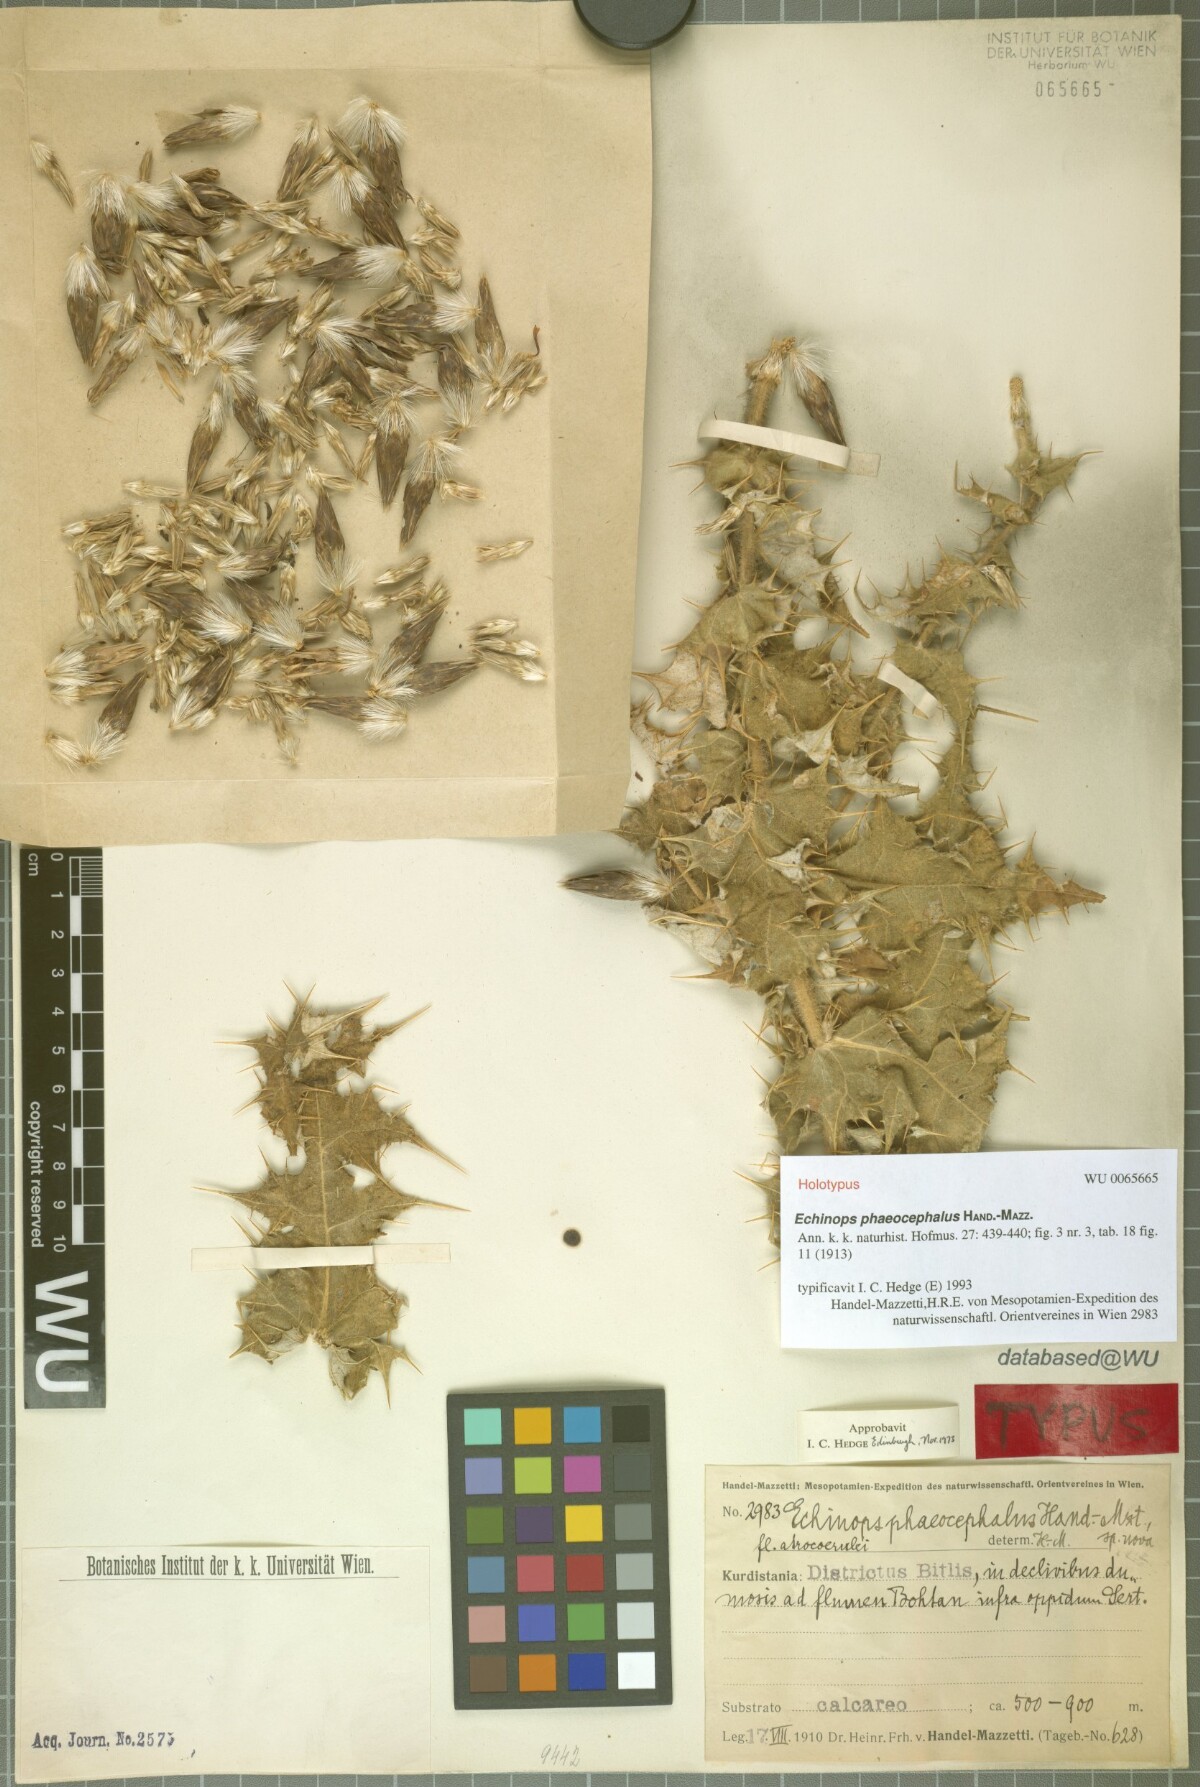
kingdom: Plantae
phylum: Tracheophyta
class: Magnoliopsida
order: Asterales
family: Asteraceae
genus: Echinops
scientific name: Echinops phaeocephalus
